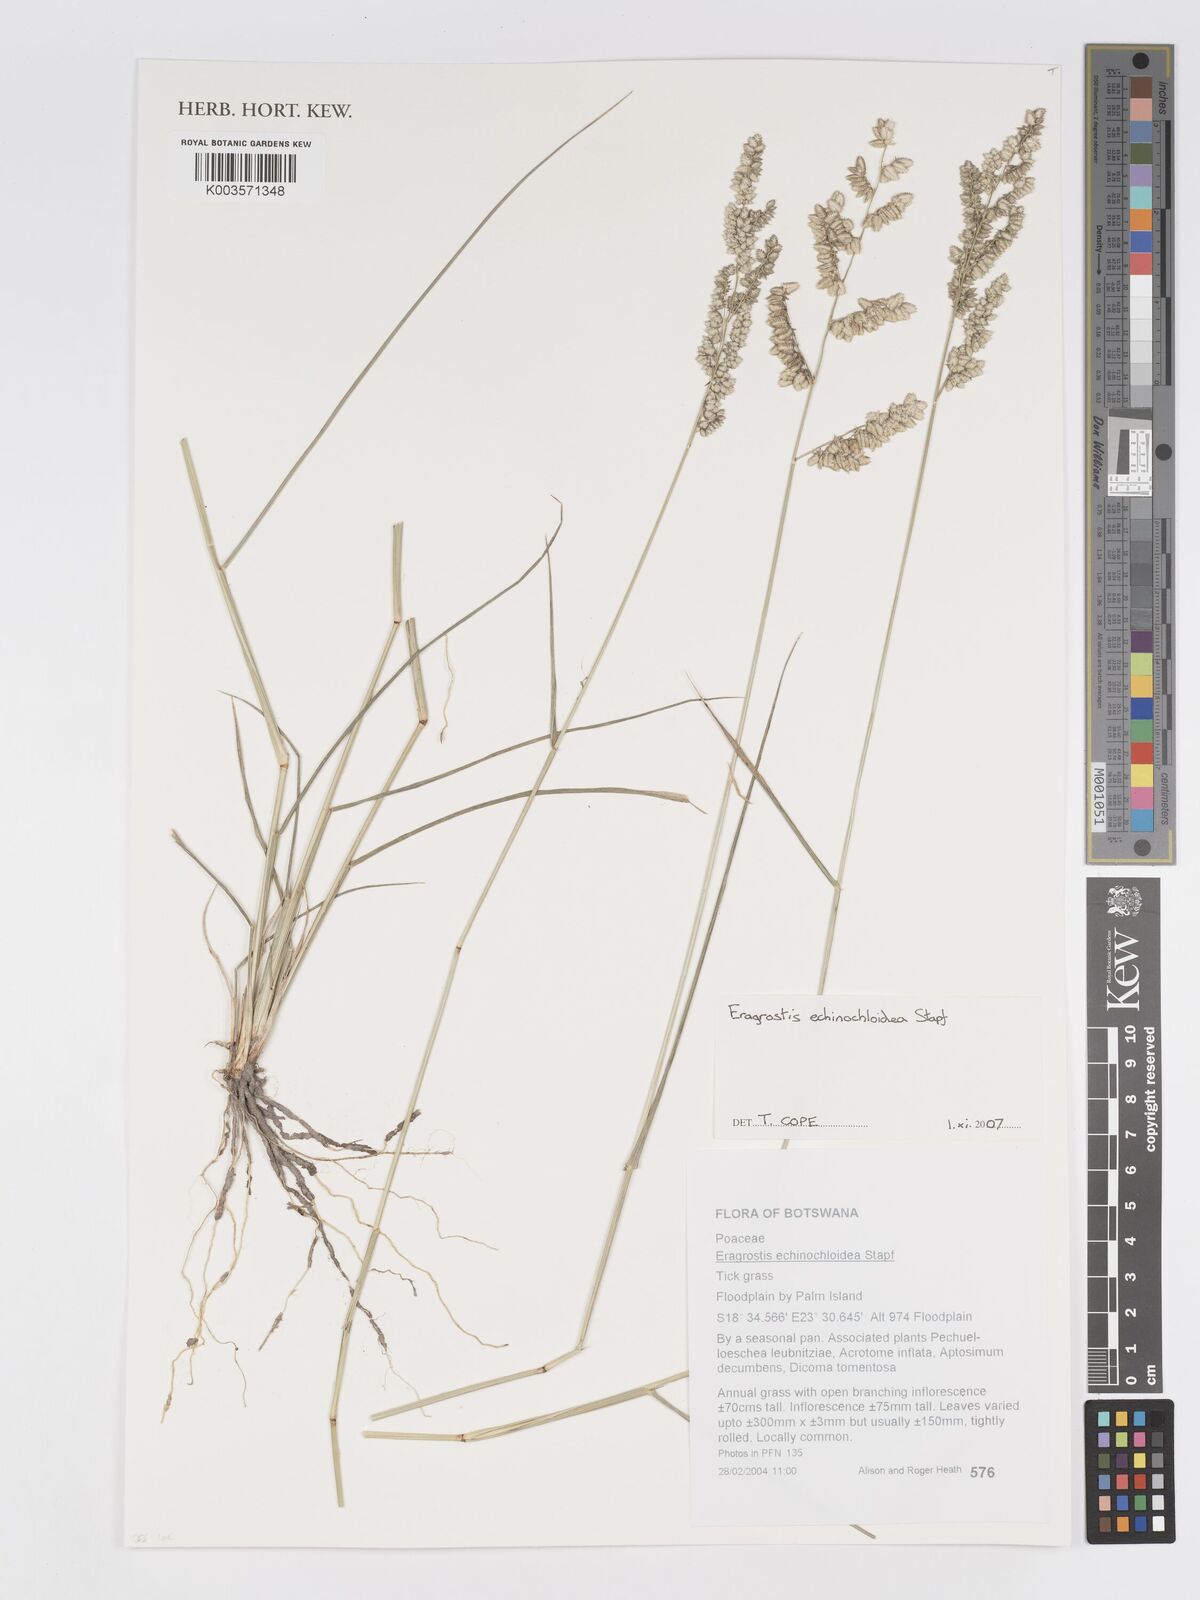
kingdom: Plantae
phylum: Tracheophyta
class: Liliopsida
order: Poales
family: Poaceae
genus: Eragrostis
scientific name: Eragrostis echinochloidea
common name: African lovegrass
